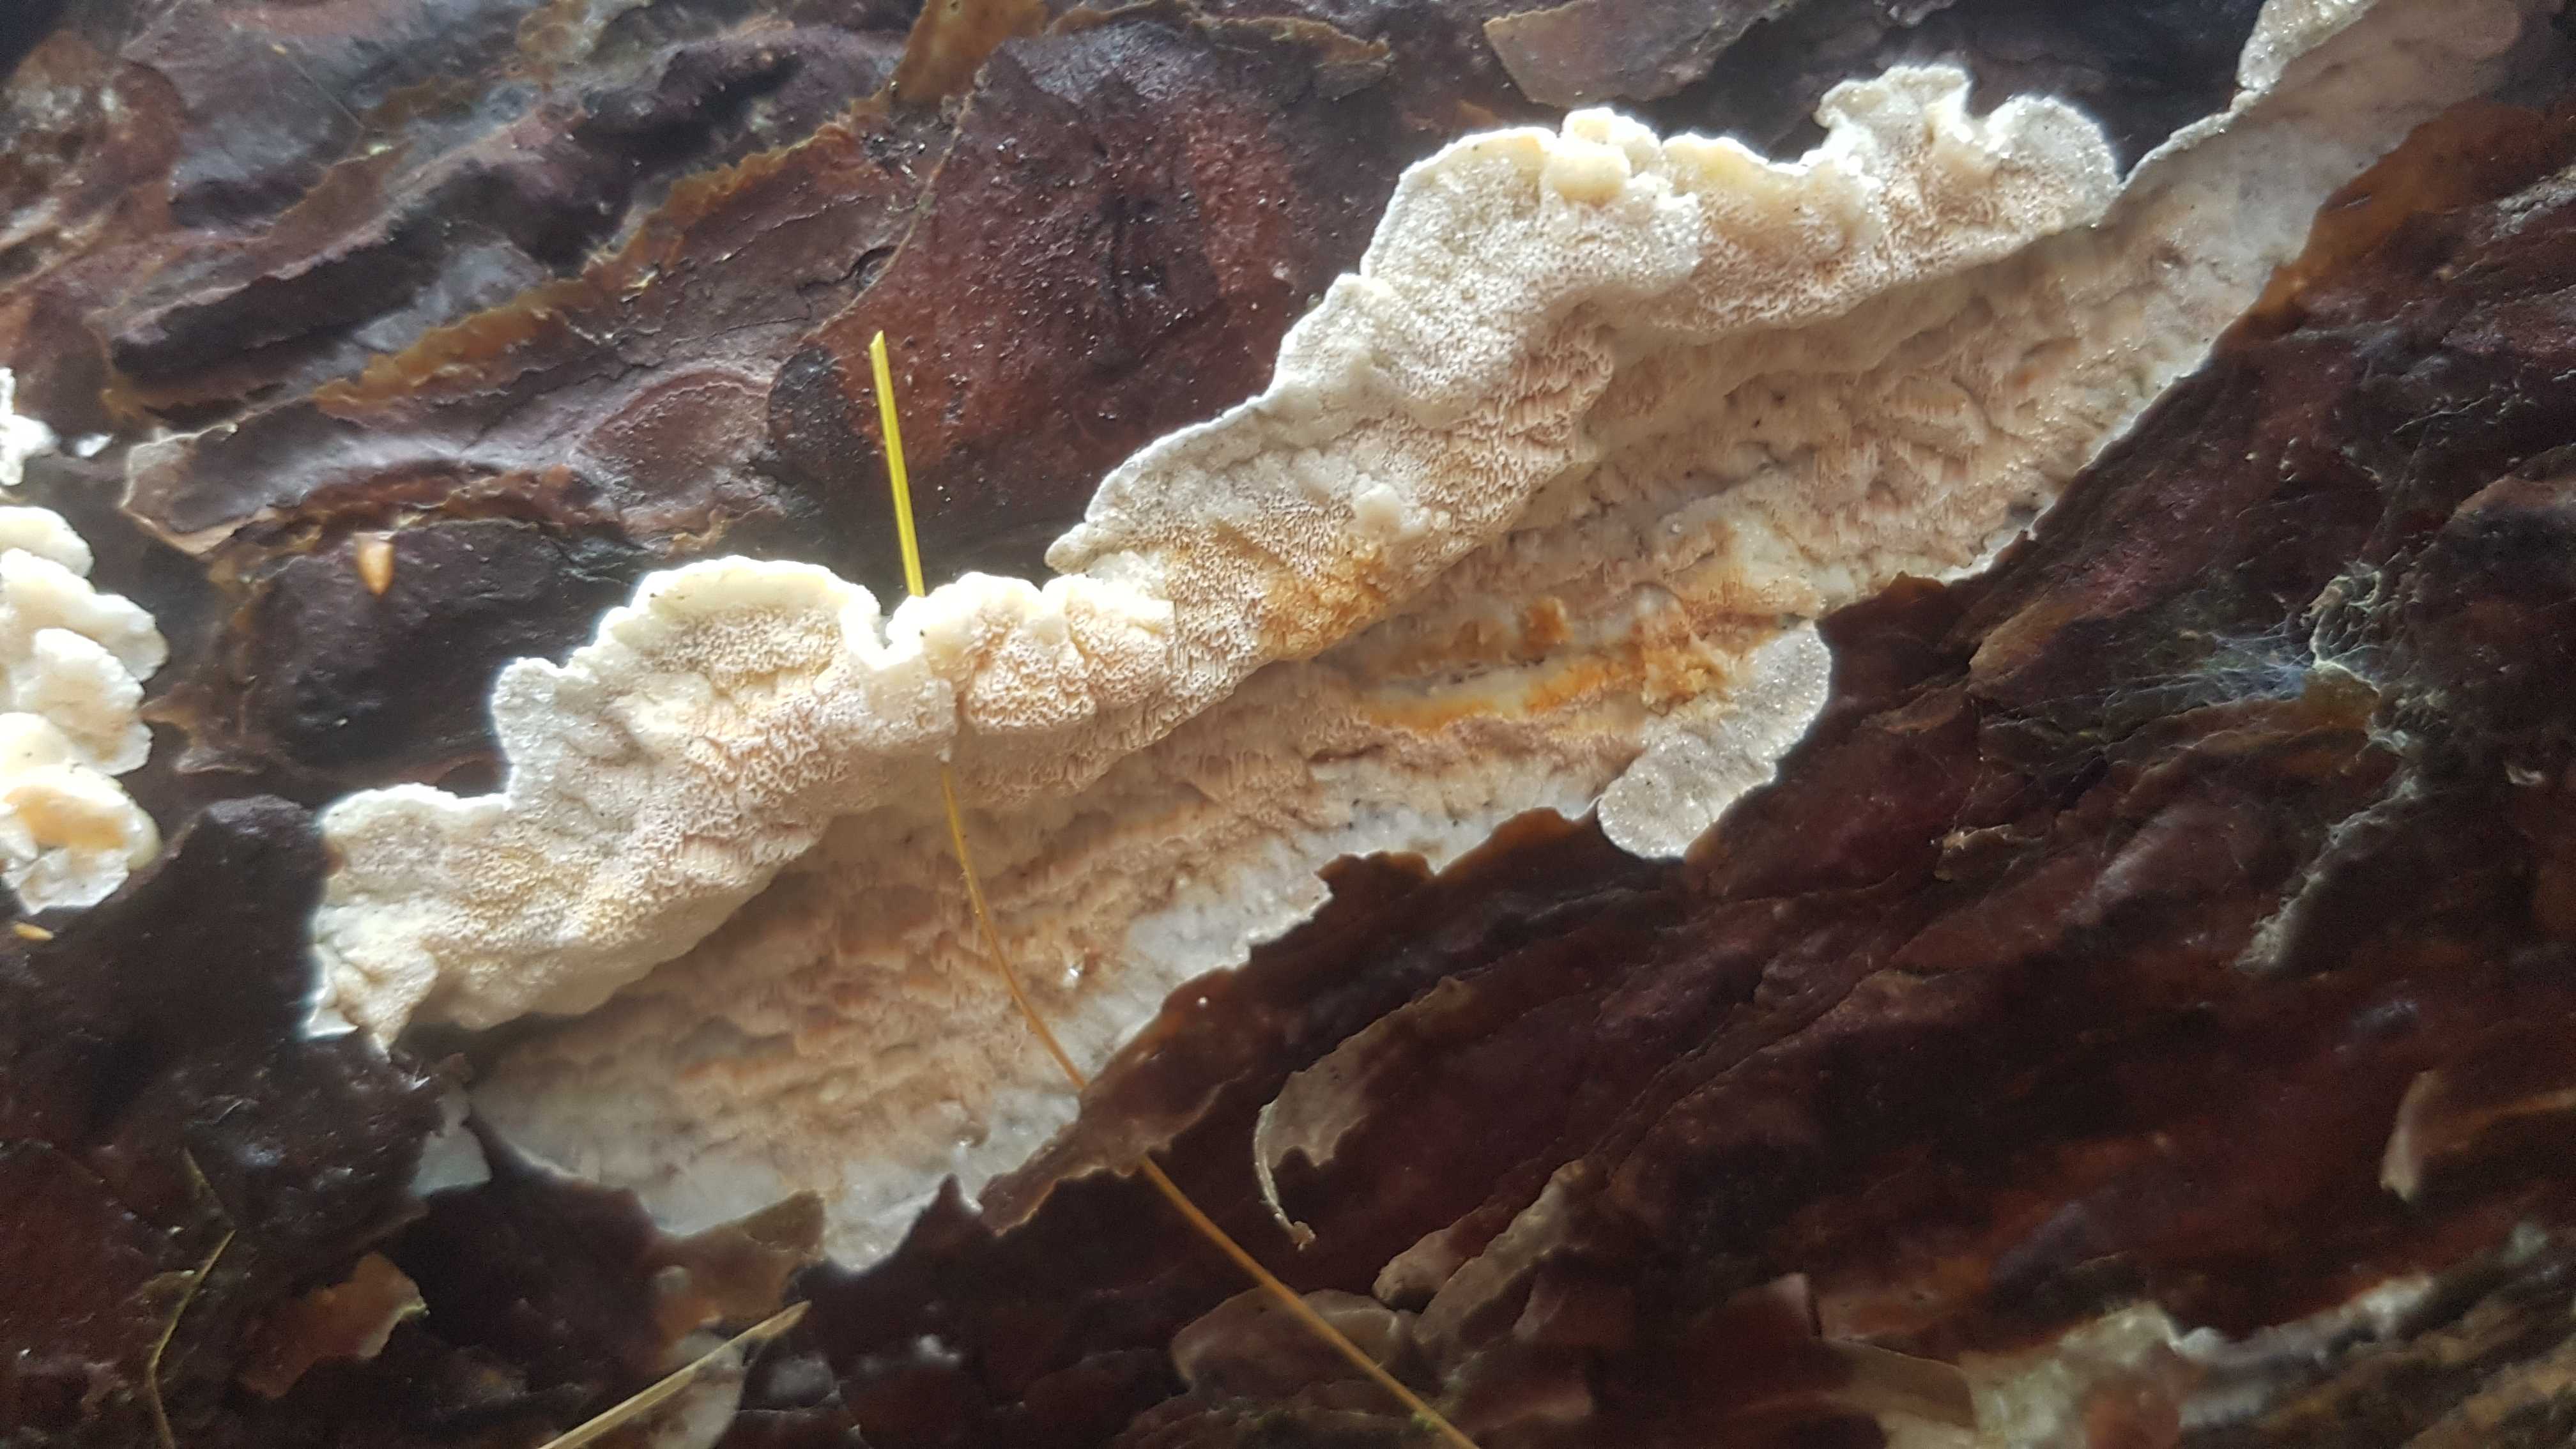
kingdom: Fungi
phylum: Basidiomycota
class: Agaricomycetes
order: Polyporales
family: Incrustoporiaceae
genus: Skeletocutis
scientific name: Skeletocutis amorpha
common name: orange krystalporesvamp
